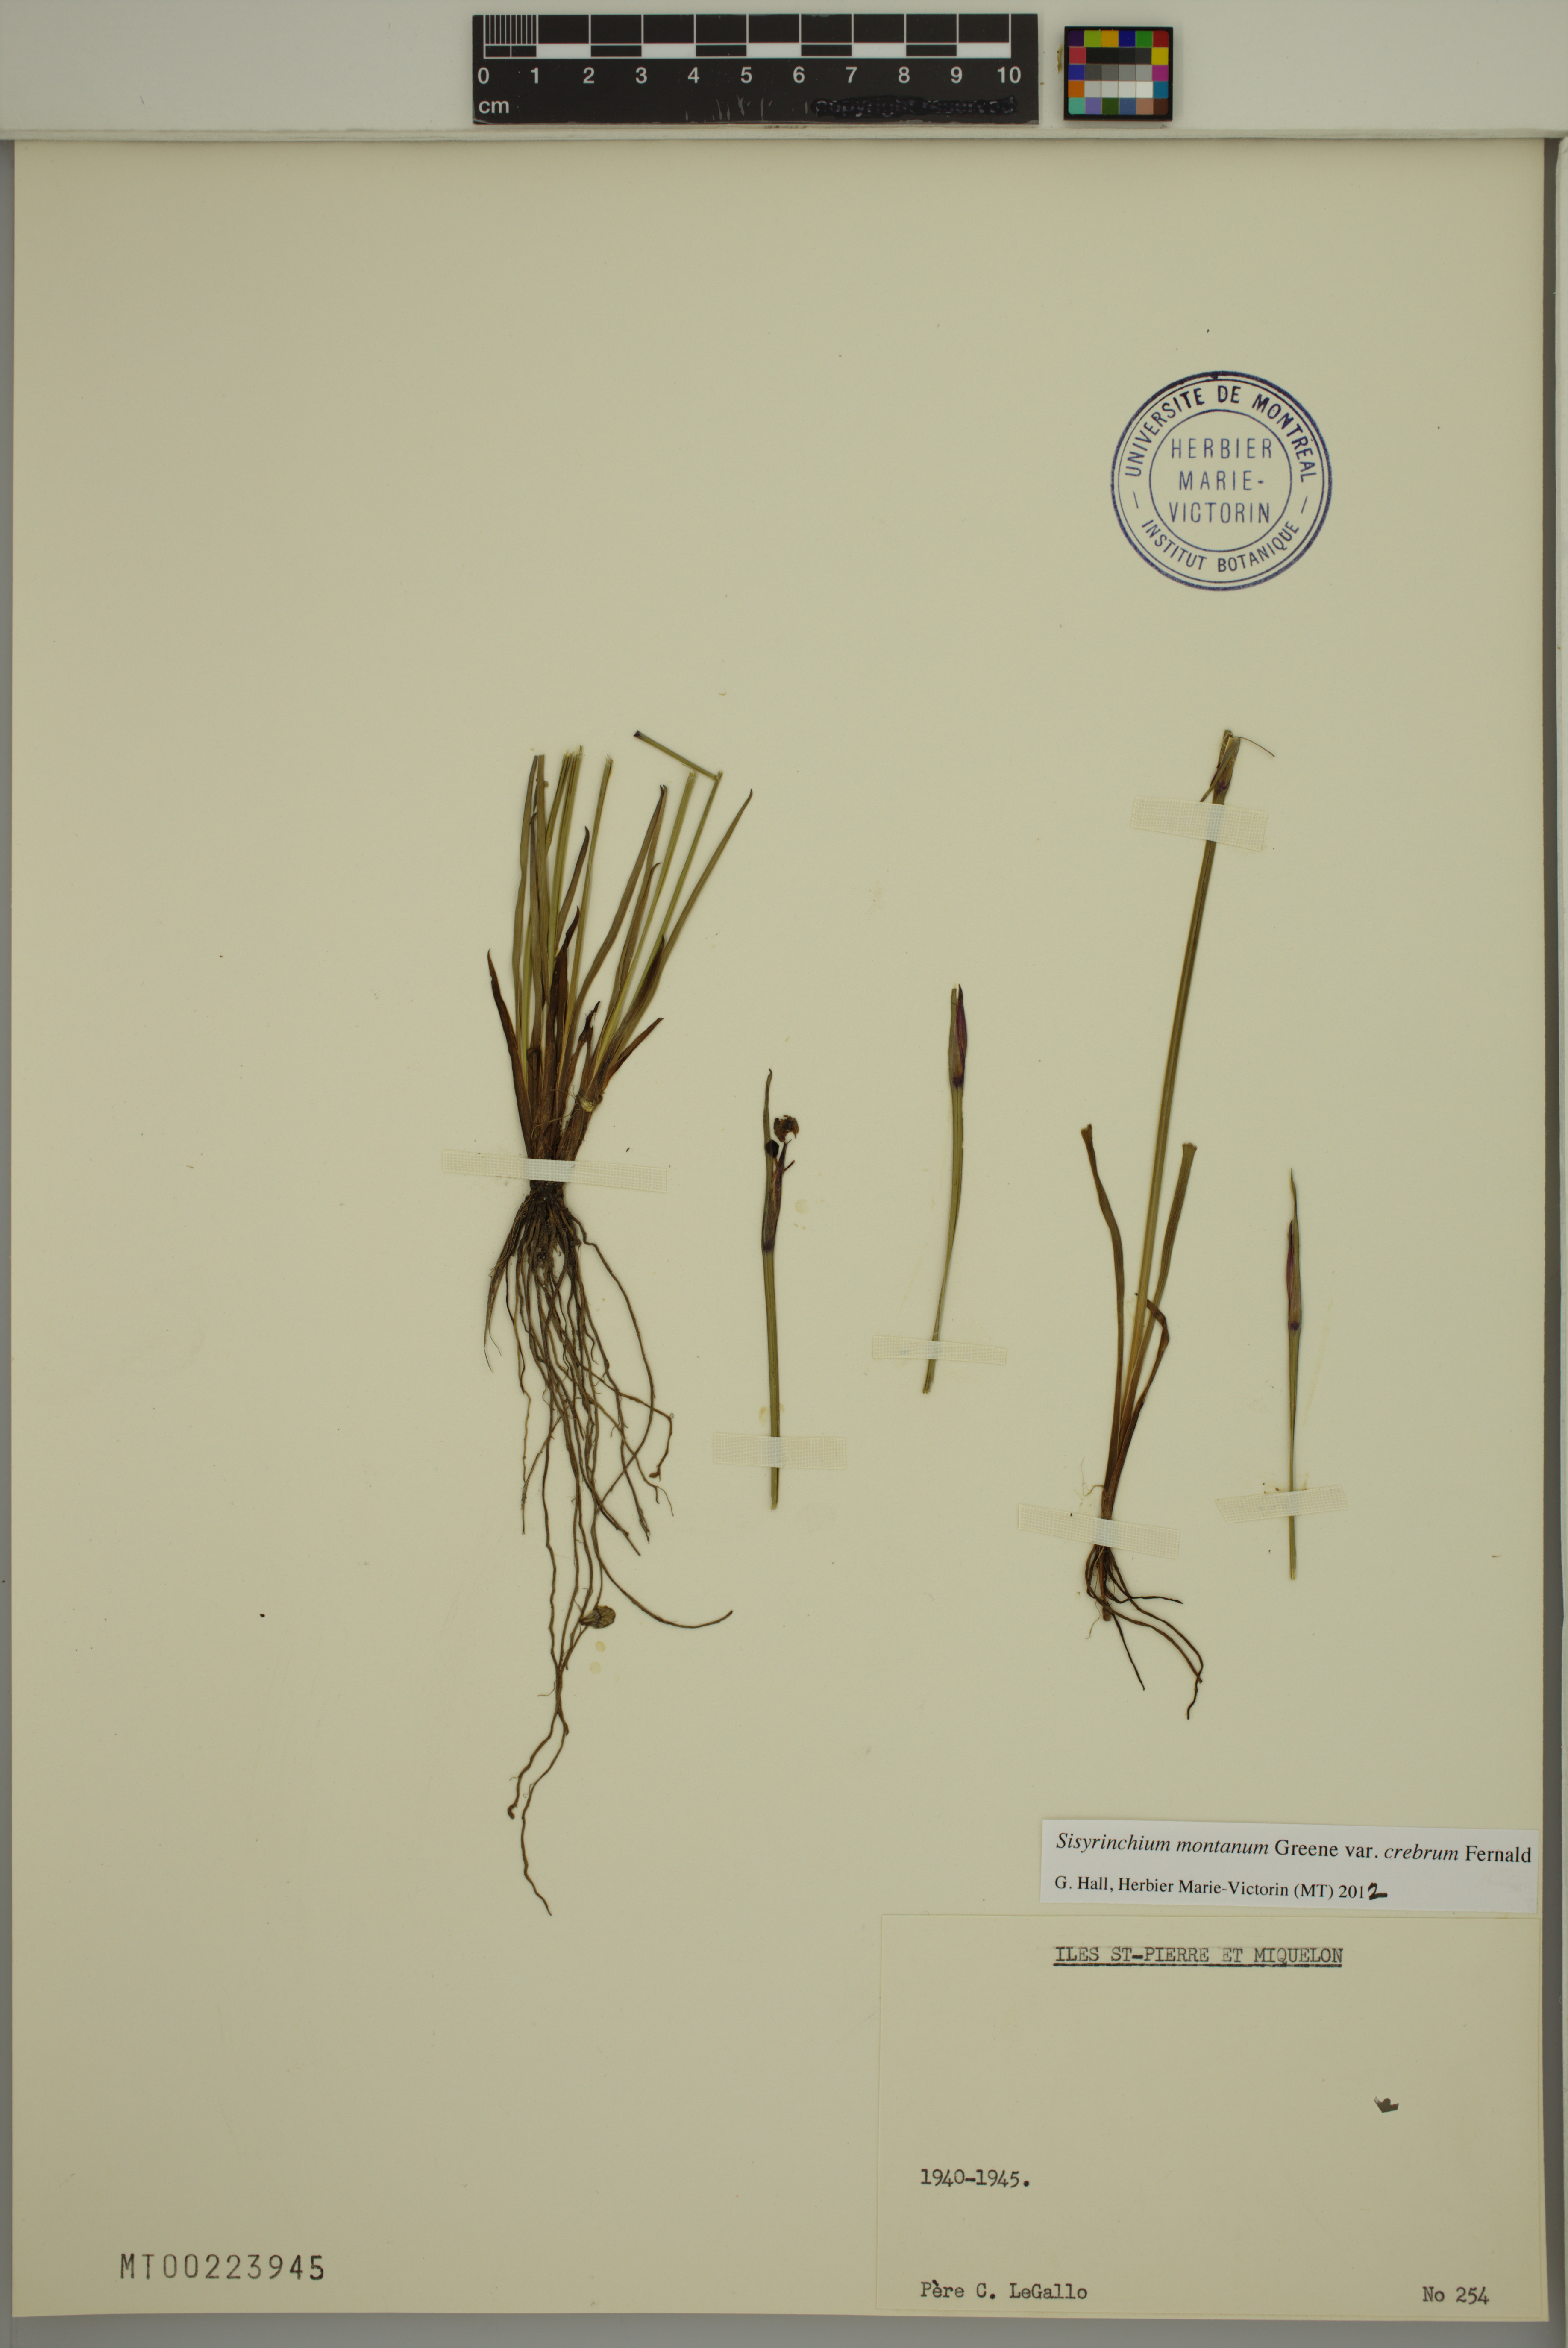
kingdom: Plantae
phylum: Tracheophyta
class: Liliopsida
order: Asparagales
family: Iridaceae
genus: Sisyrinchium
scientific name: Sisyrinchium montanum
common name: American blue-eyed-grass
